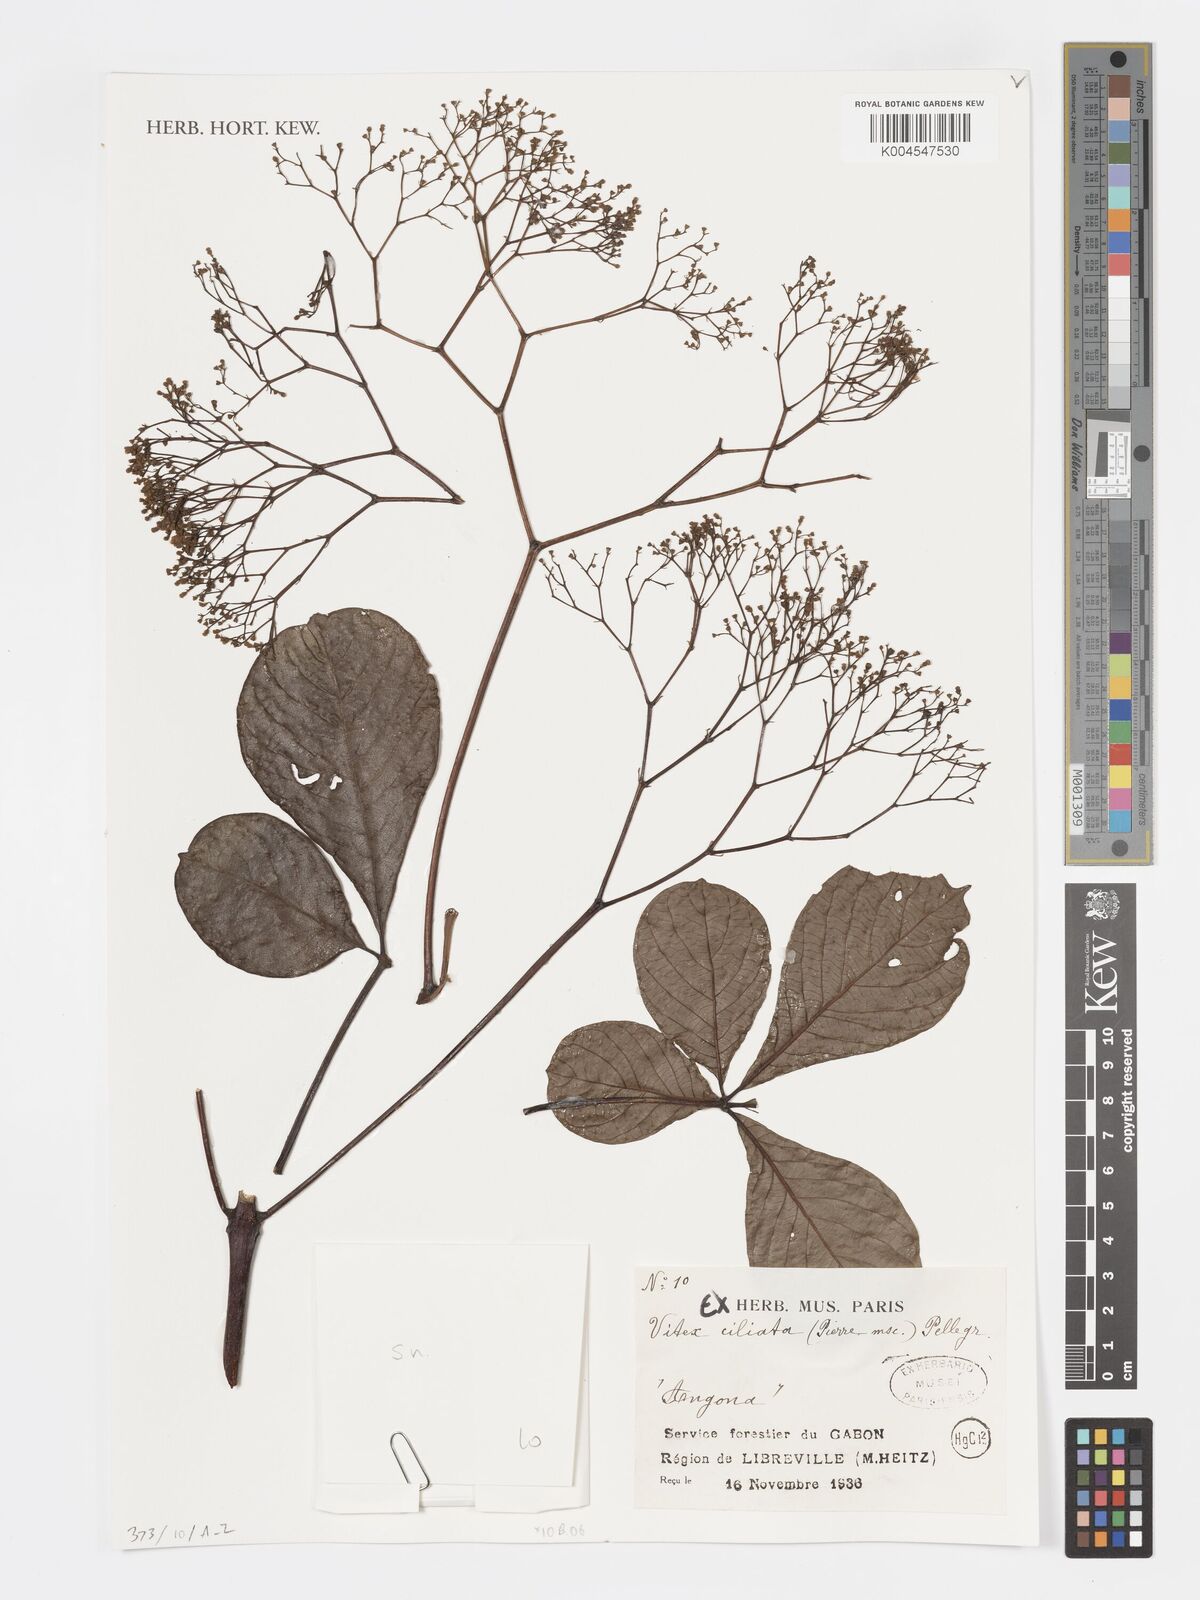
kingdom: Plantae
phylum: Tracheophyta
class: Magnoliopsida
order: Lamiales
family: Lamiaceae
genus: Vitex
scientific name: Vitex ciliata
